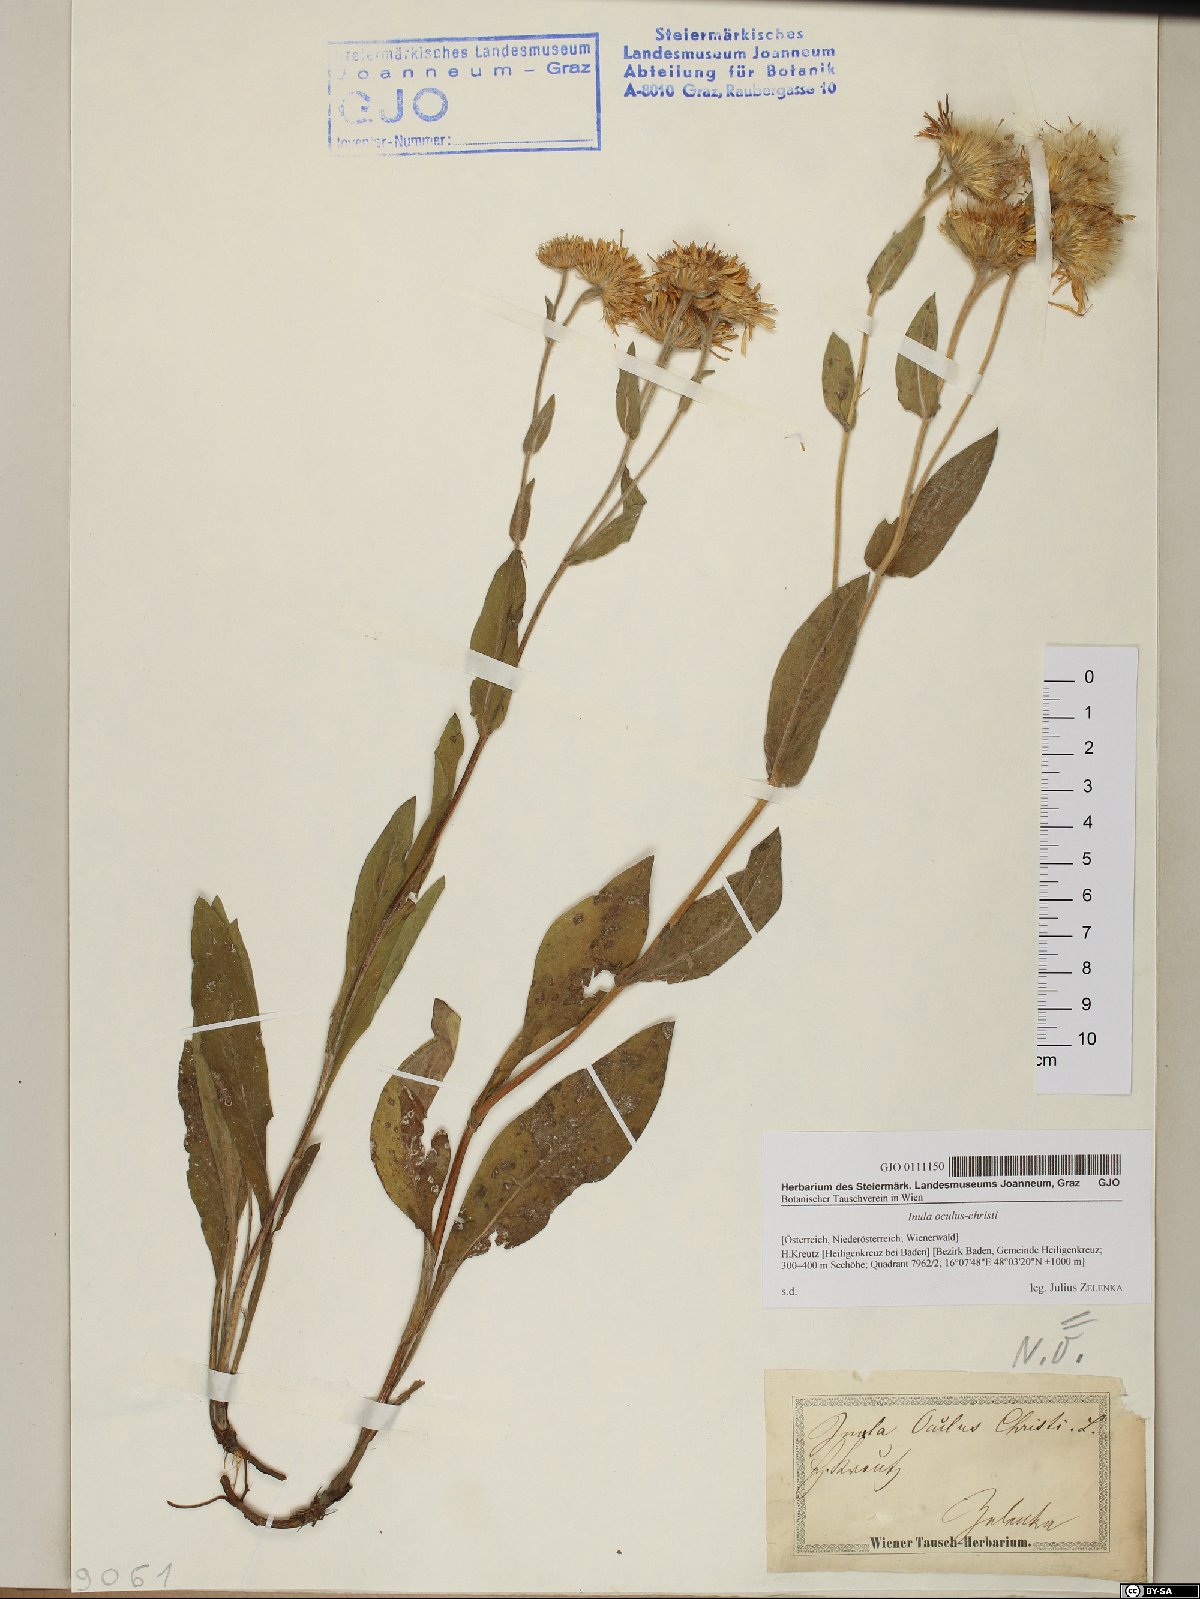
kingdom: Plantae
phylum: Tracheophyta
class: Magnoliopsida
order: Asterales
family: Asteraceae
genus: Pentanema
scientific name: Pentanema oculus-christi
